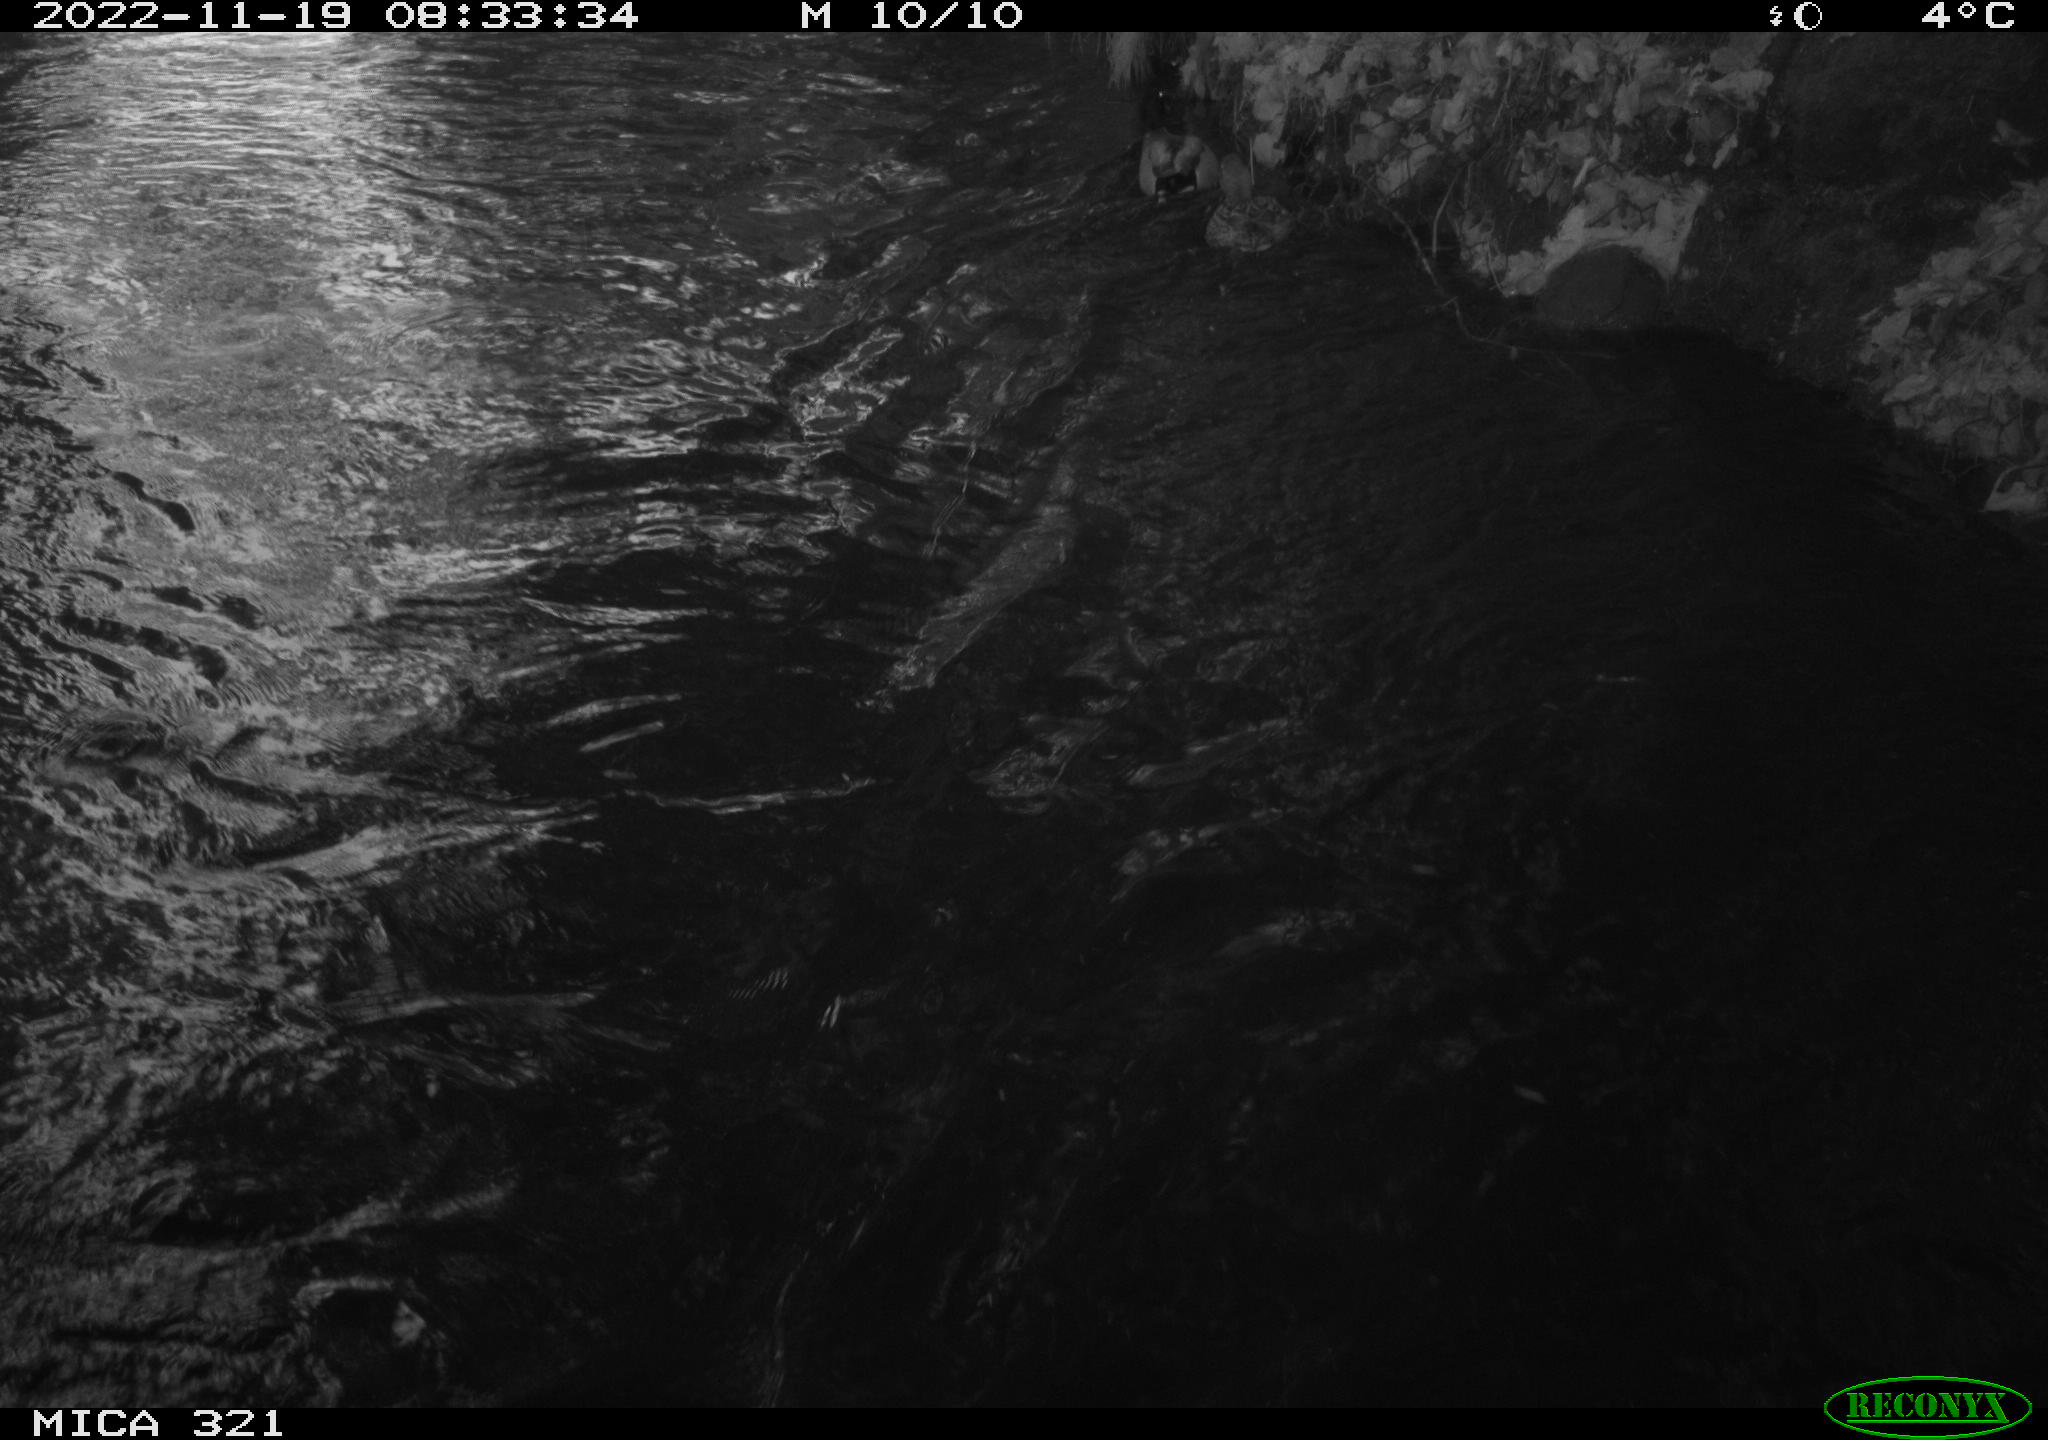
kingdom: Animalia
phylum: Chordata
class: Aves
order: Anseriformes
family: Anatidae
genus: Anas
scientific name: Anas
